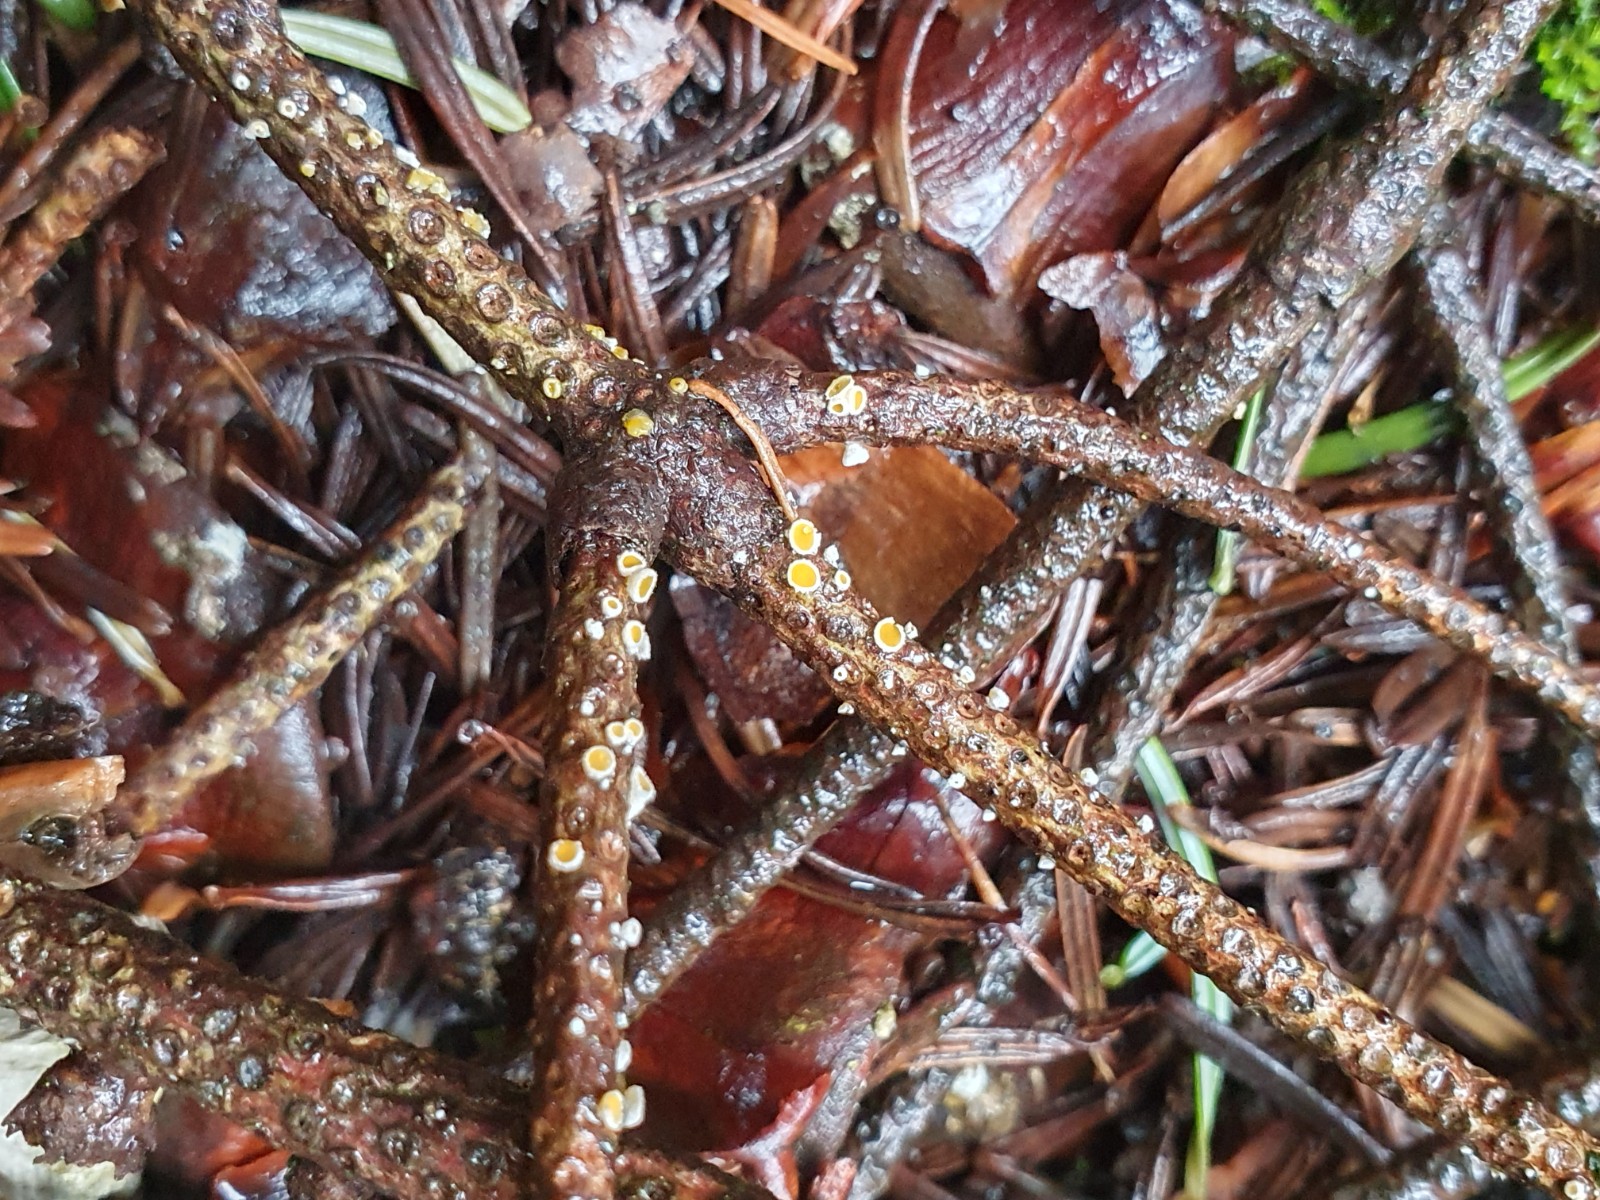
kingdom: Fungi
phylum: Ascomycota
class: Leotiomycetes
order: Helotiales
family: Lachnaceae
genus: Lachnellula
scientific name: Lachnellula calyciformis
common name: ædelgran-frynseskive
